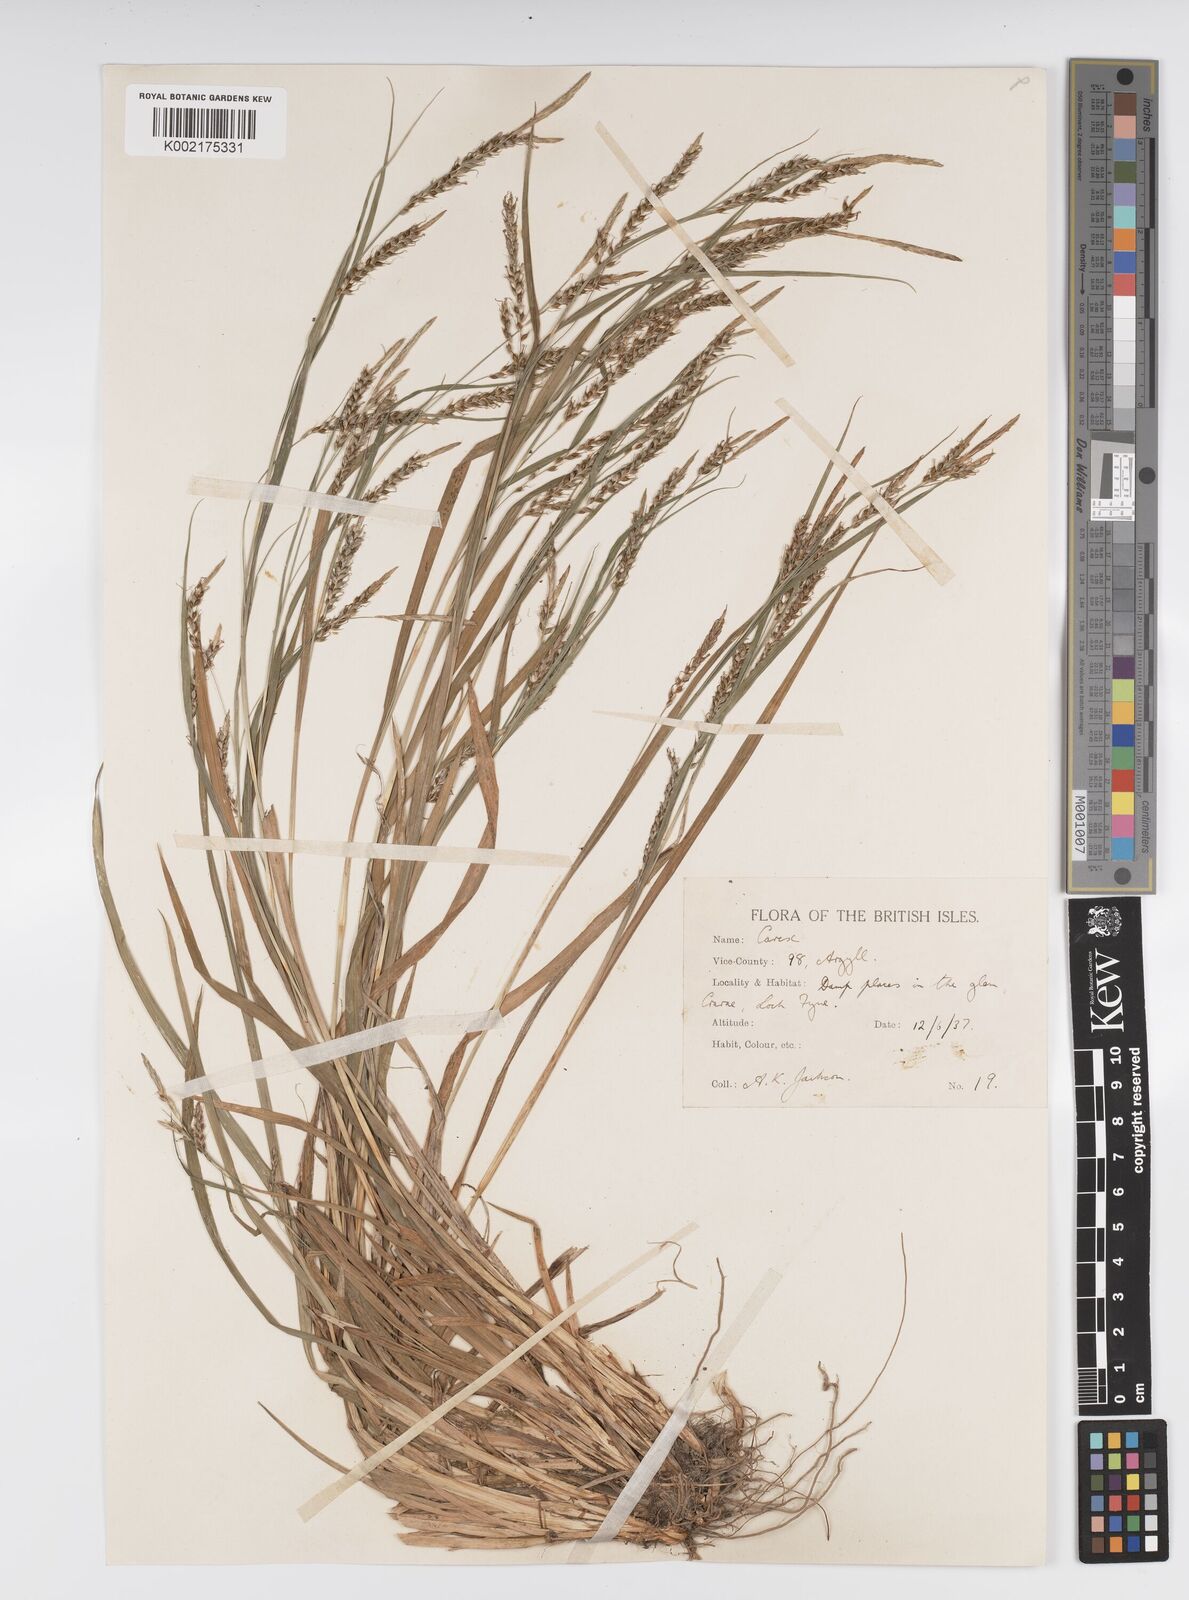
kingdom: Plantae
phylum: Tracheophyta
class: Liliopsida
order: Poales
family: Cyperaceae
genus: Carex
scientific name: Carex sylvatica
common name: Wood-sedge
